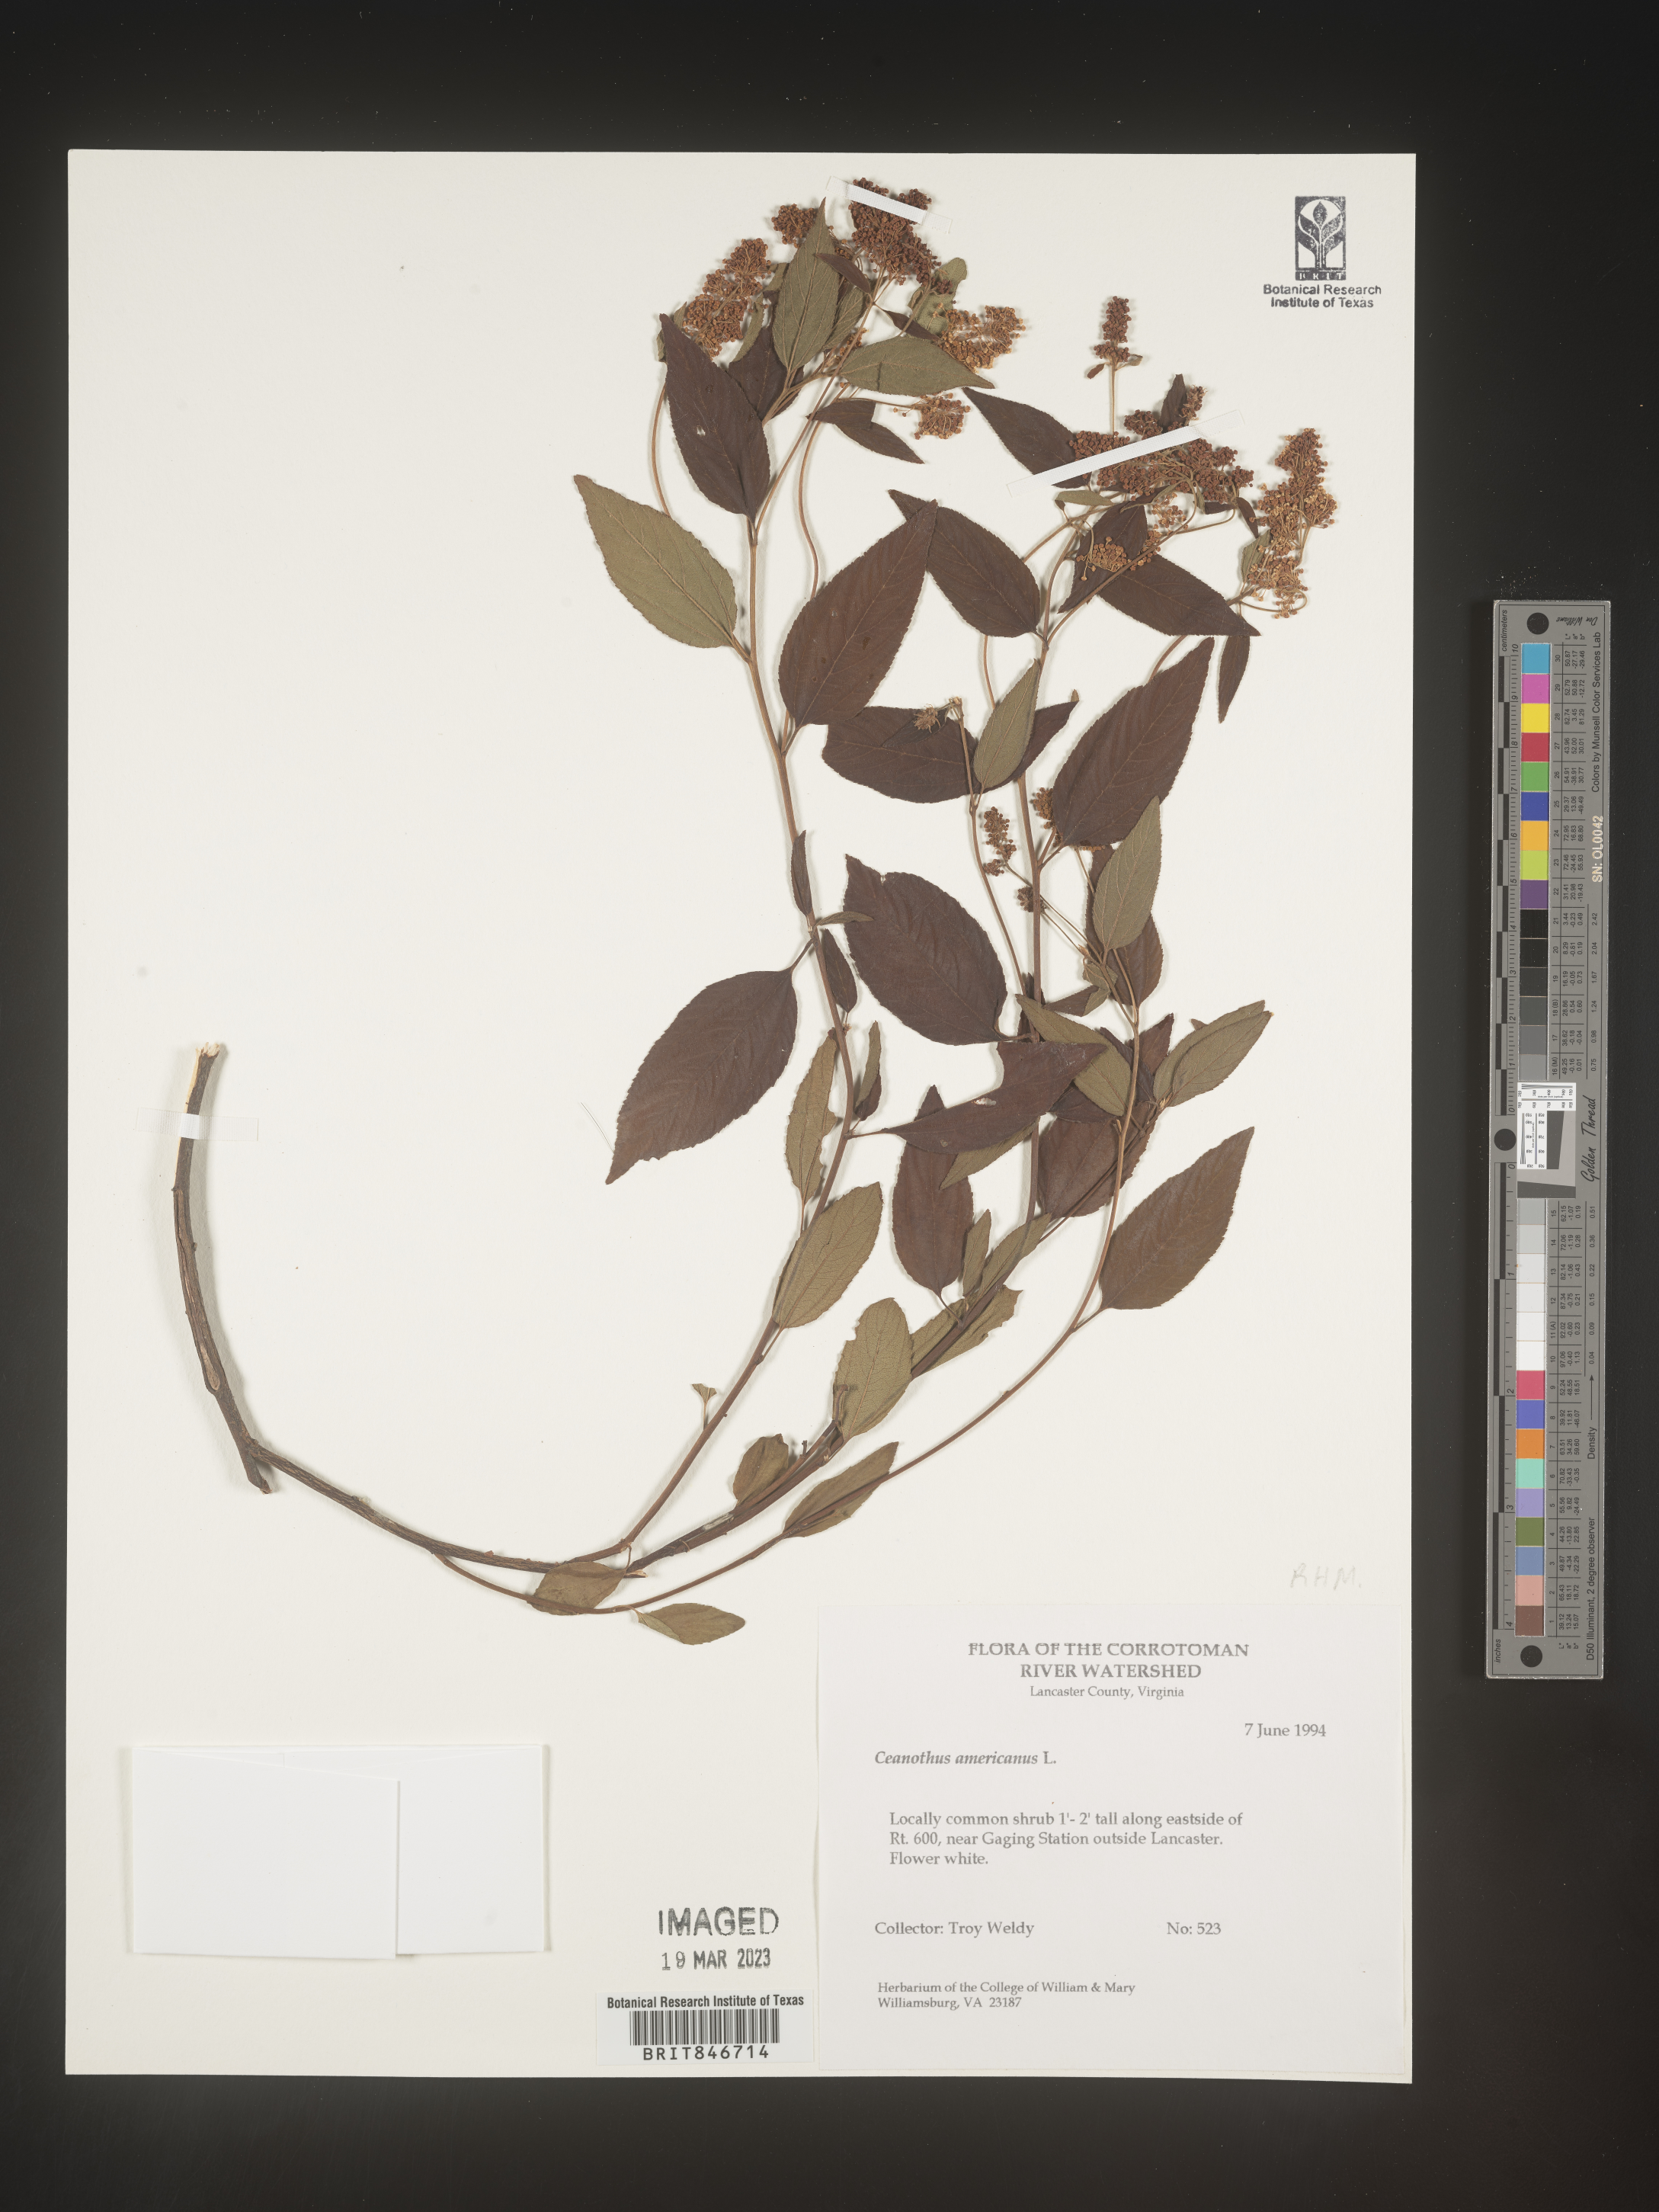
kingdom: Plantae
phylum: Tracheophyta
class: Magnoliopsida
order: Rosales
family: Rhamnaceae
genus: Ceanothus
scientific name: Ceanothus americanus
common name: Redroot
